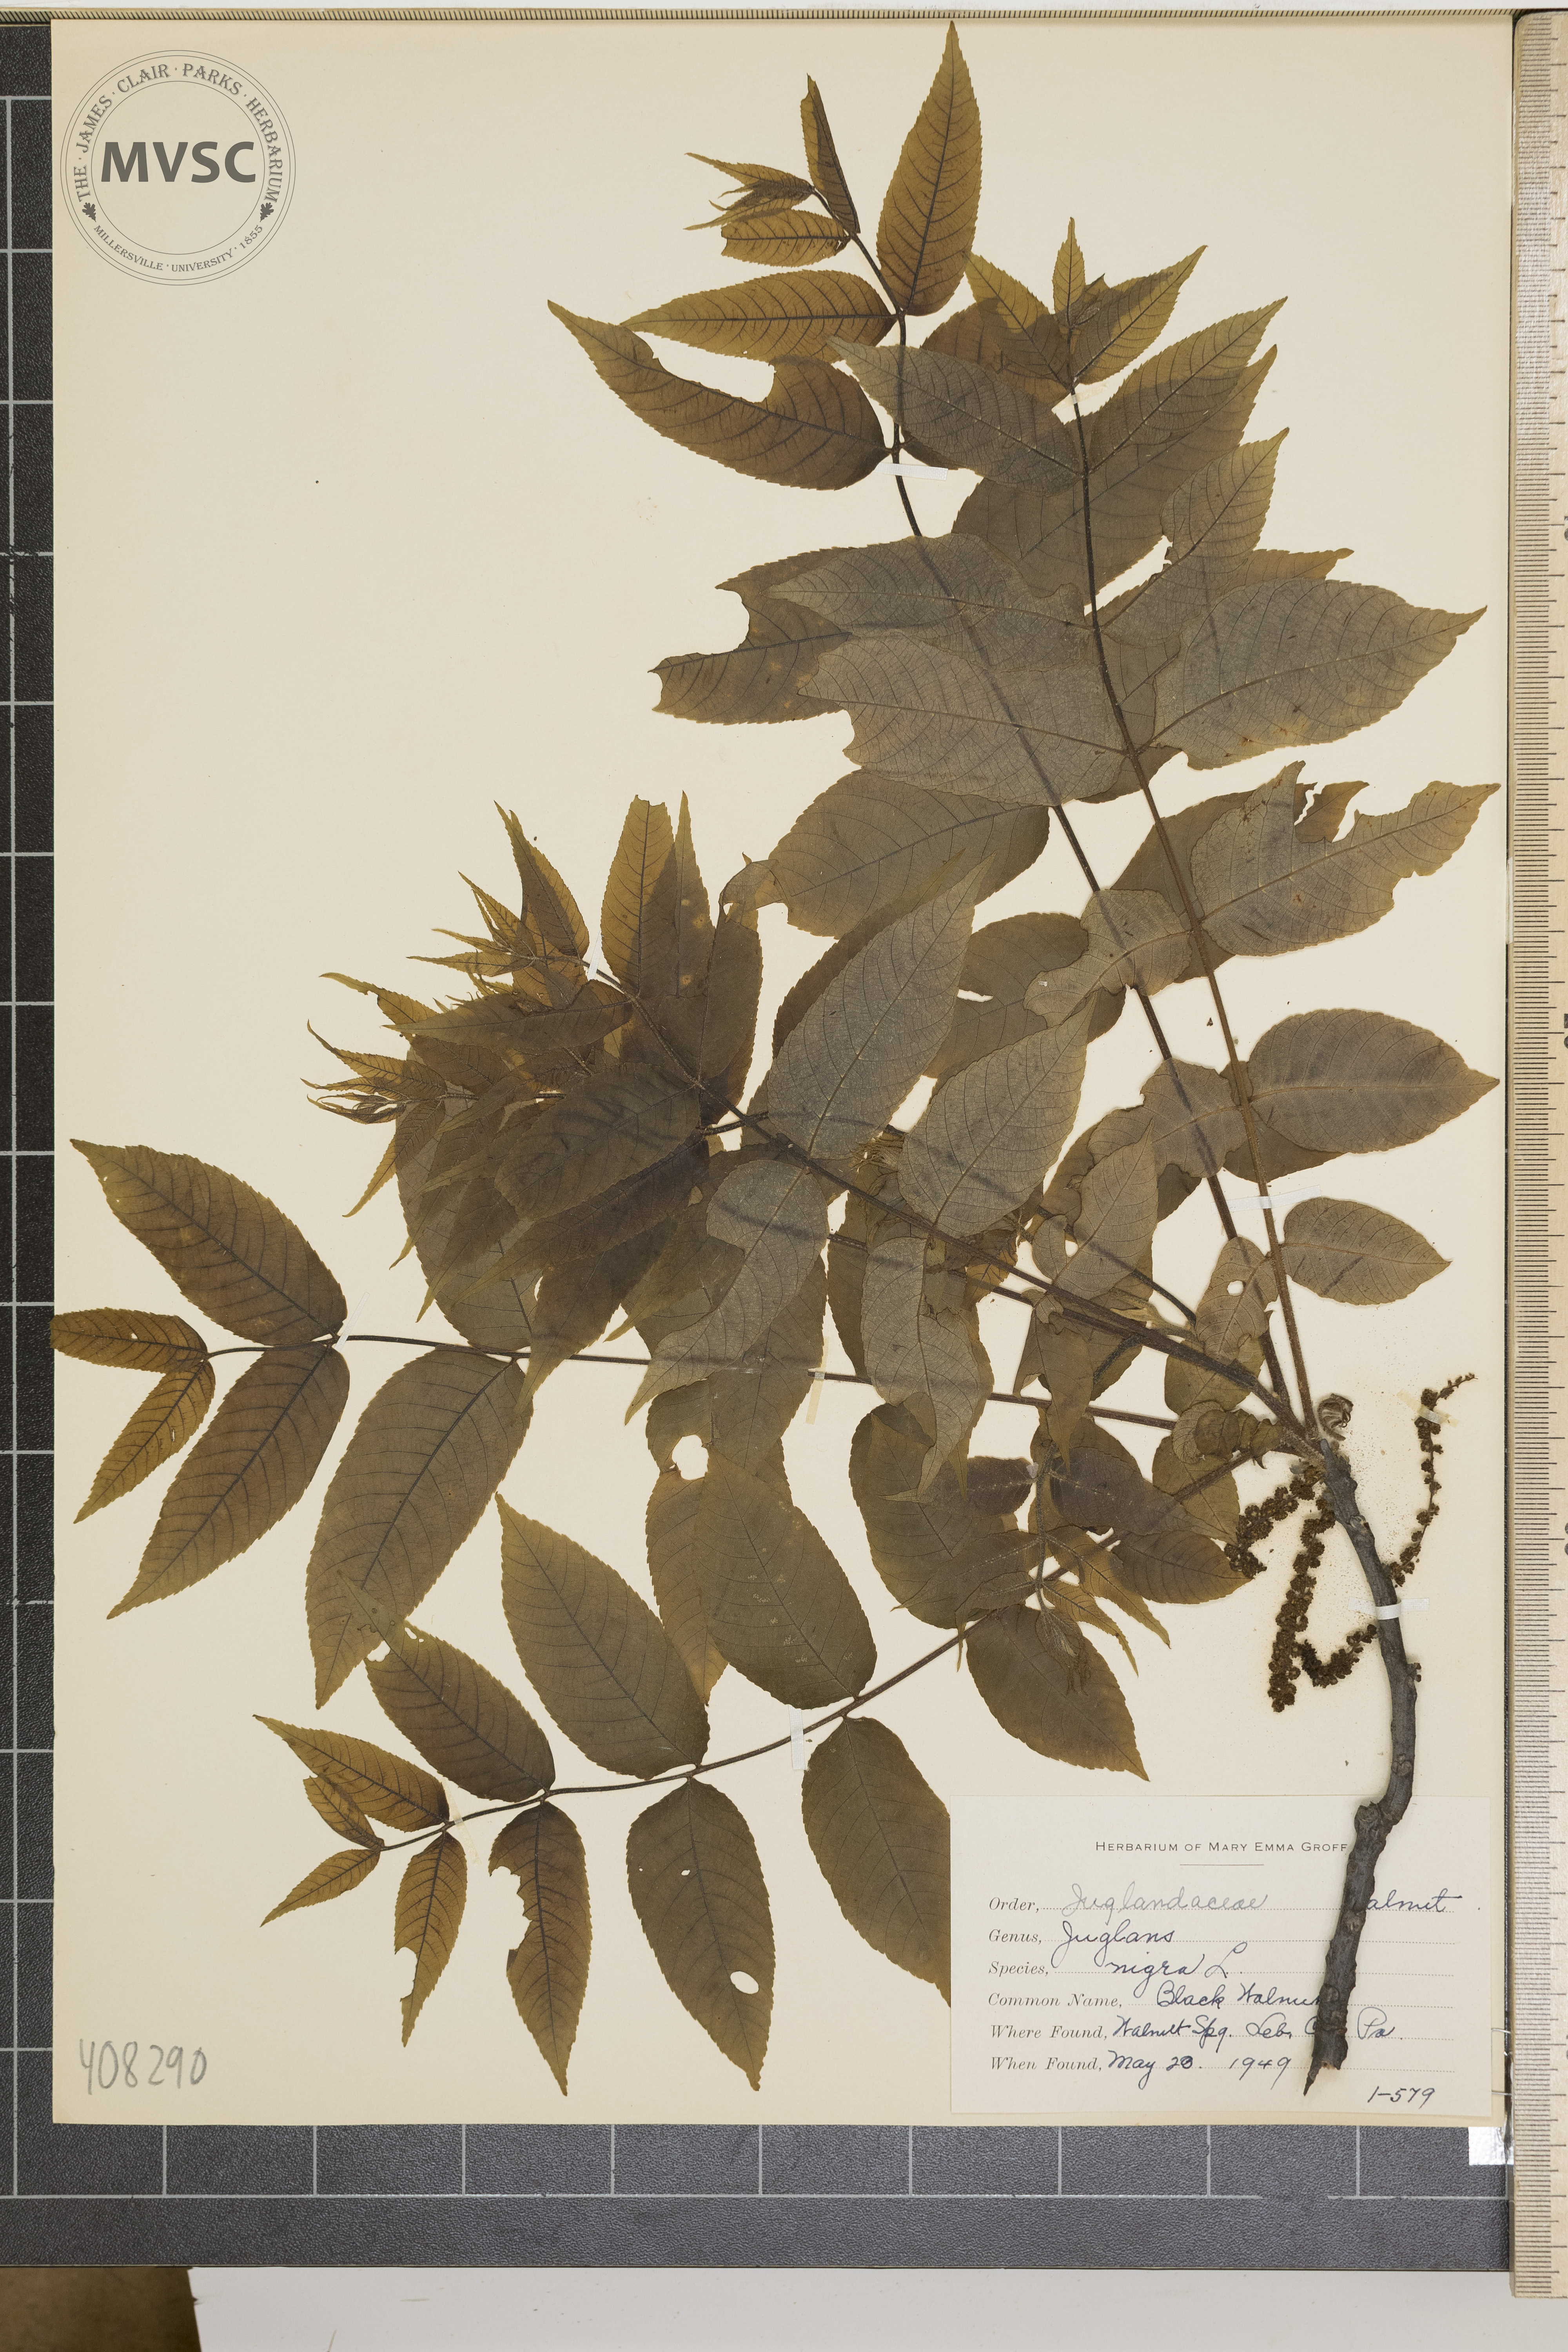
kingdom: Plantae
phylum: Tracheophyta
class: Magnoliopsida
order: Fagales
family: Juglandaceae
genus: Juglans
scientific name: Juglans nigra
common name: Black Walnut
